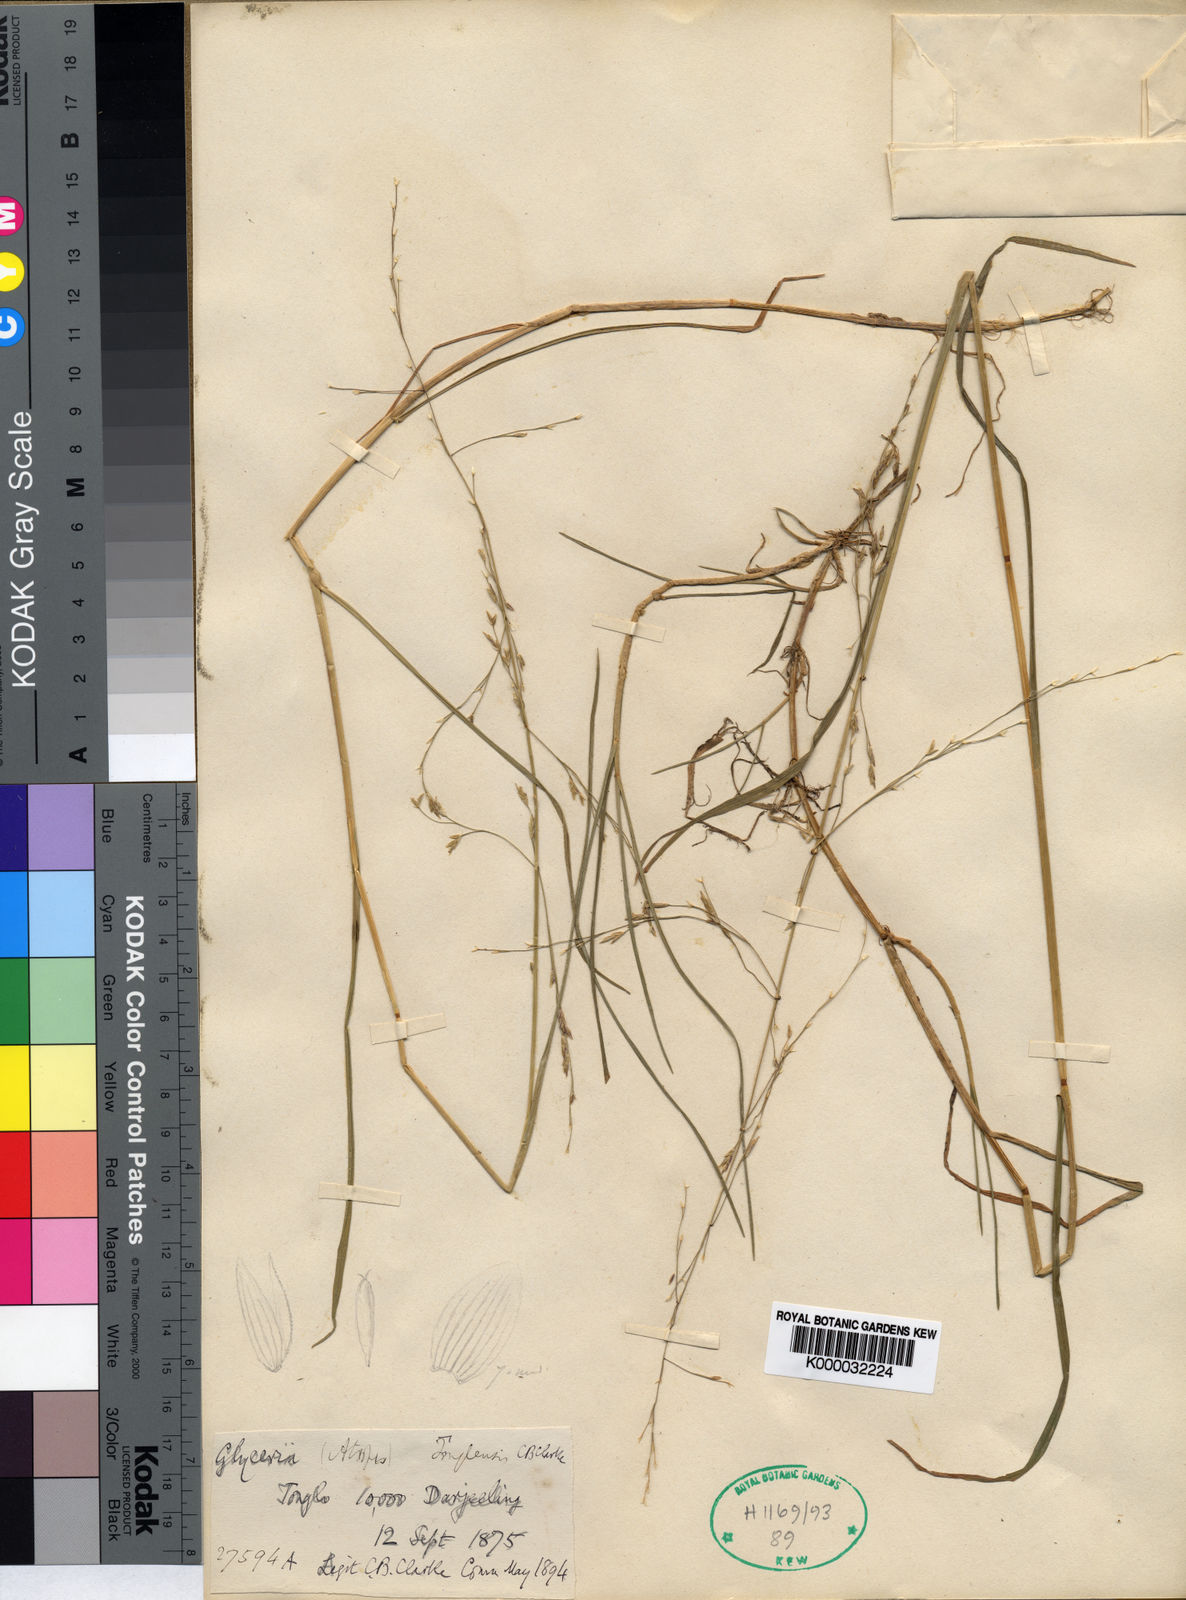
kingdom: Plantae
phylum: Tracheophyta
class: Liliopsida
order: Poales
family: Poaceae
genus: Glyceria
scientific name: Glyceria tonglensis
